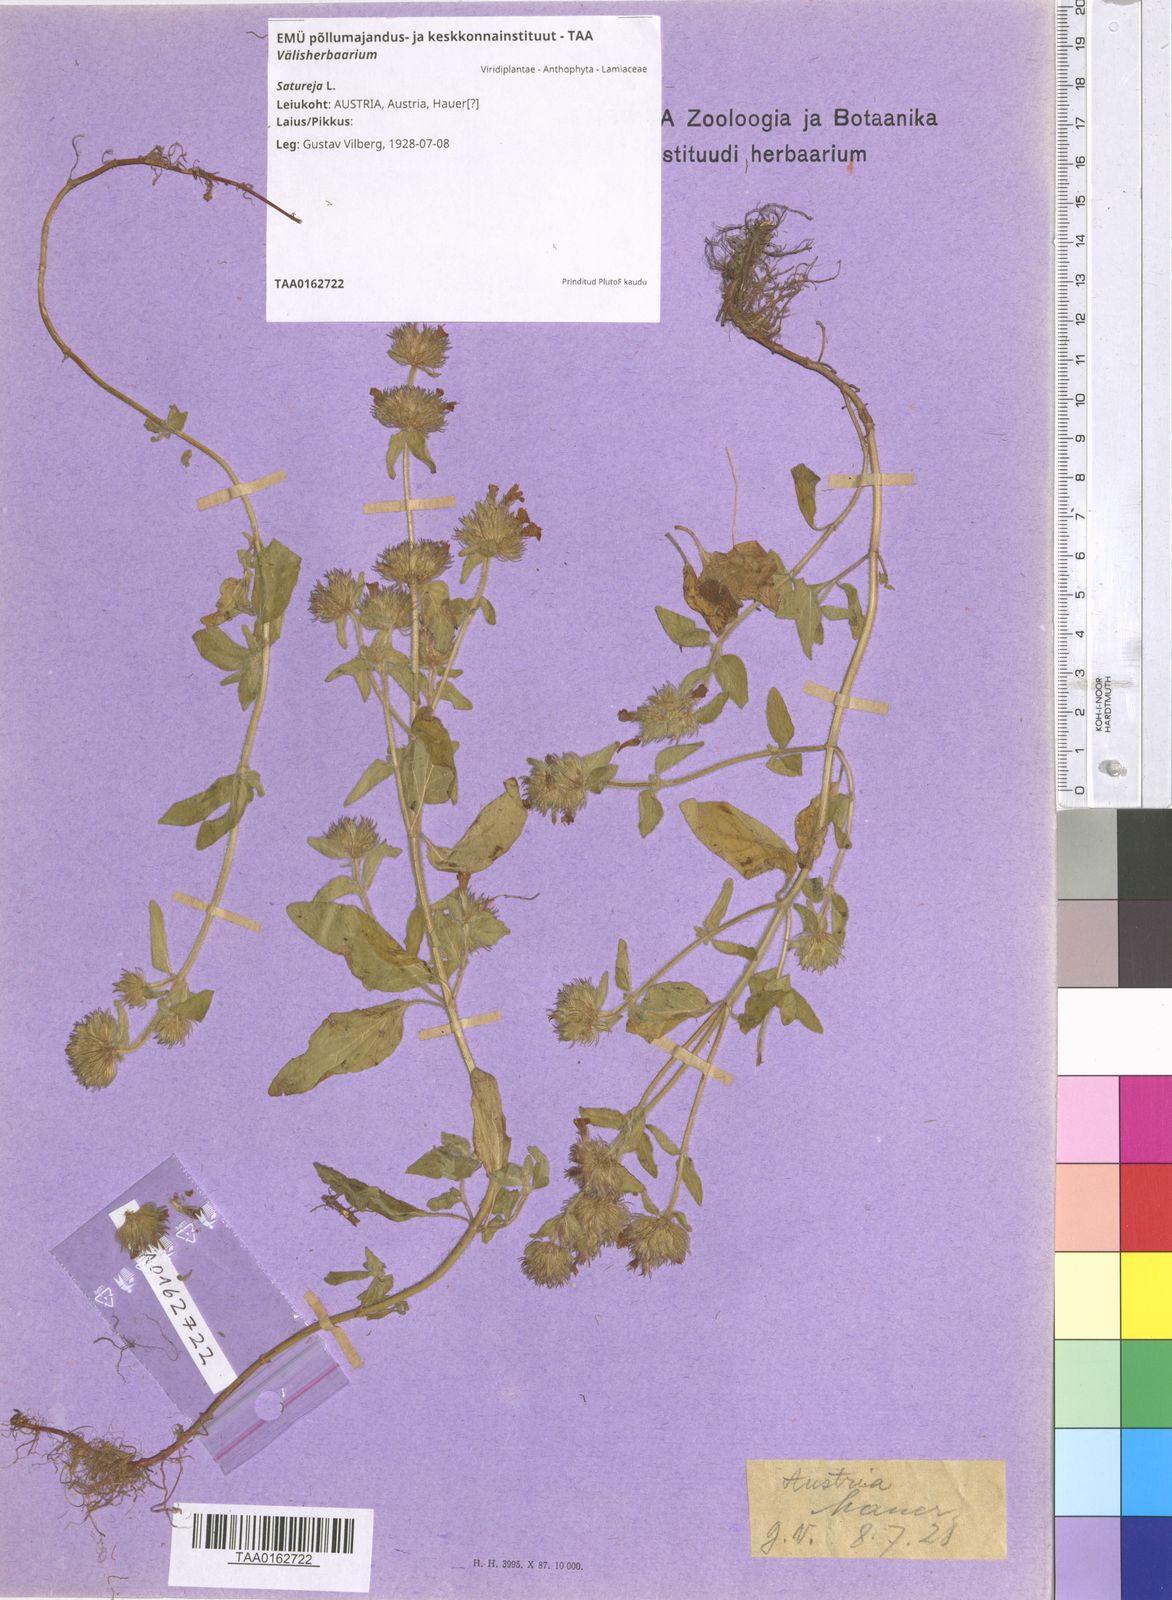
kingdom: Plantae
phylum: Tracheophyta
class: Magnoliopsida
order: Lamiales
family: Lamiaceae
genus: Satureja
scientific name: Satureja
